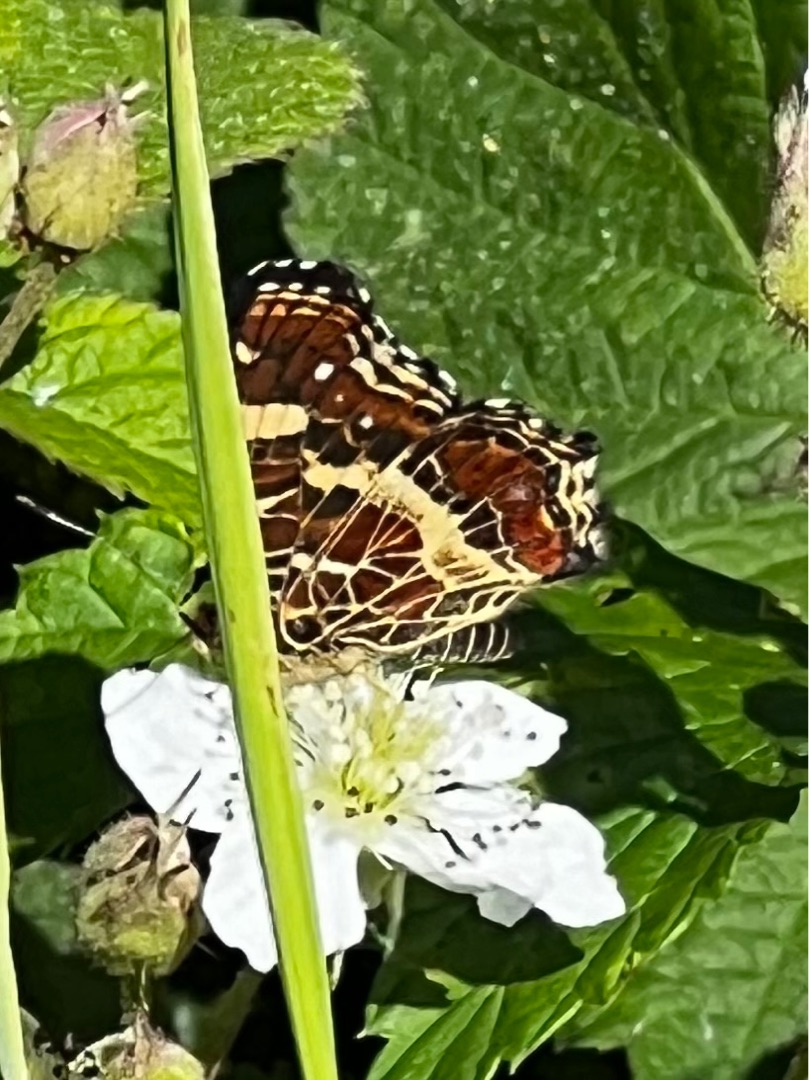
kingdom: Animalia
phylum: Arthropoda
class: Insecta
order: Lepidoptera
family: Nymphalidae
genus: Araschnia
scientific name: Araschnia levana
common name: Nældesommerfugl
